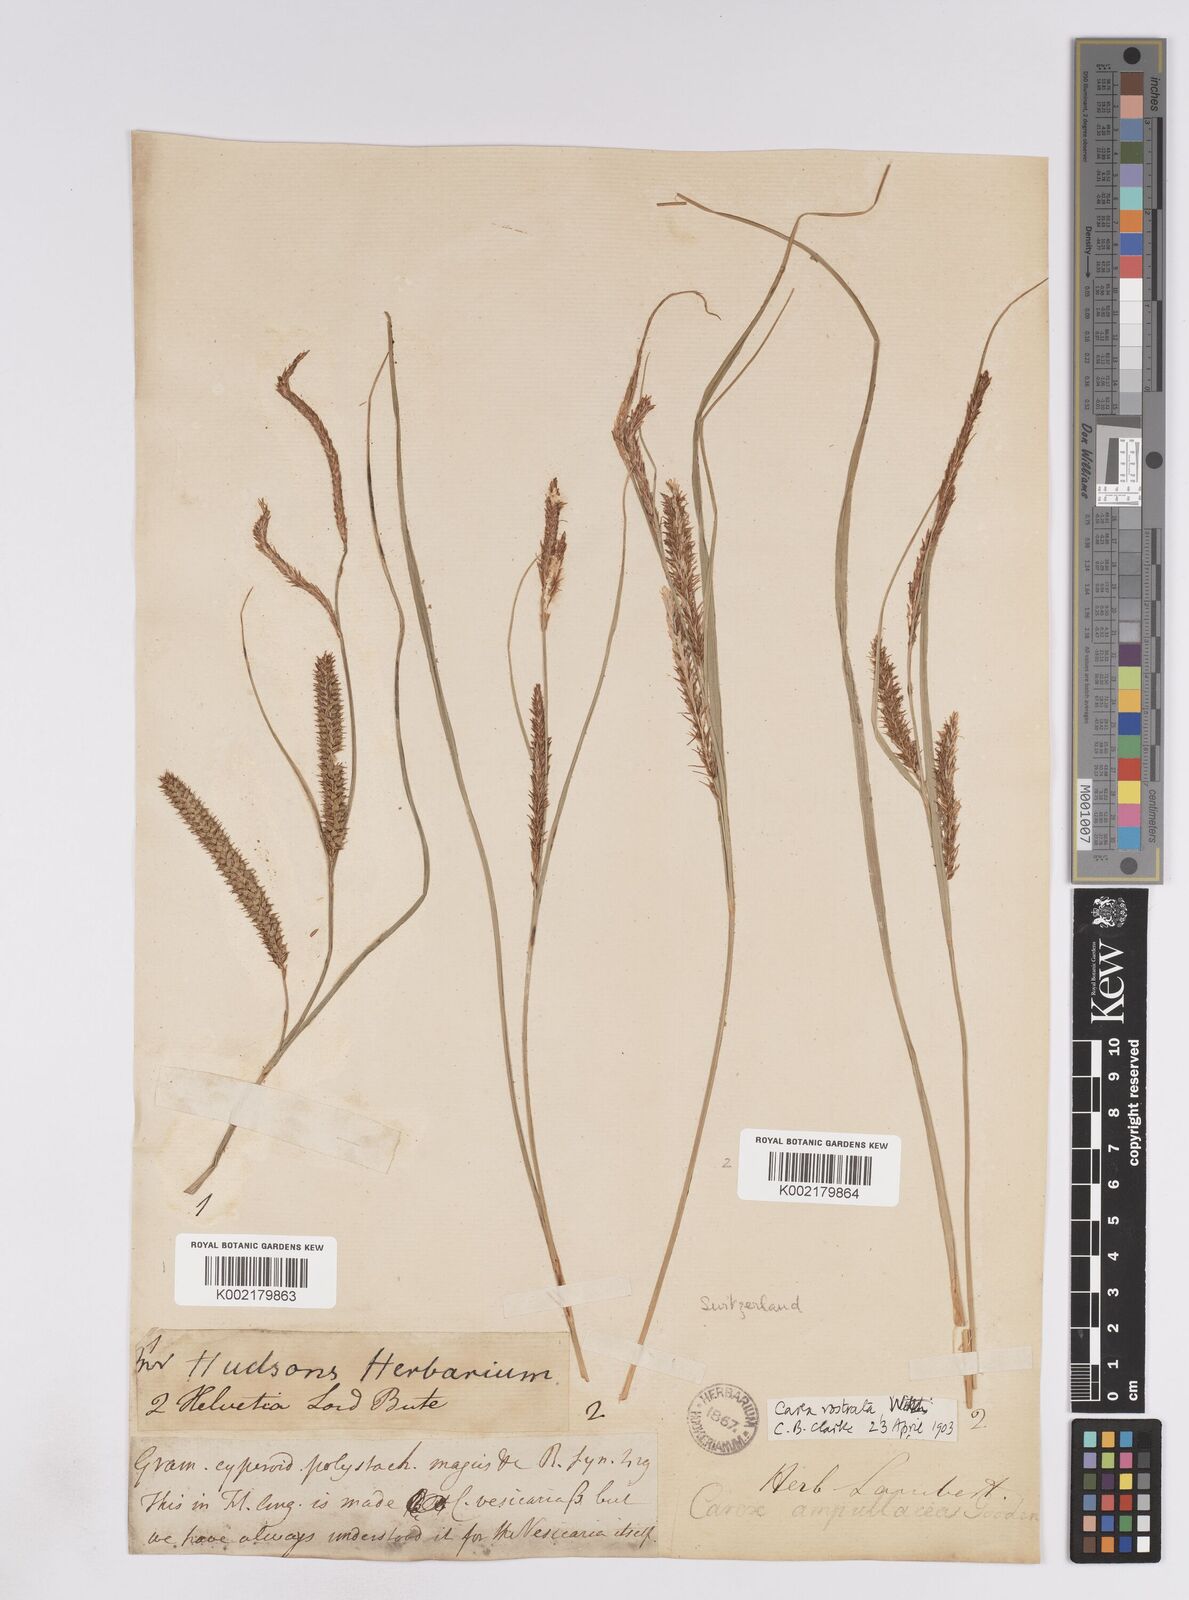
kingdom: Plantae
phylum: Tracheophyta
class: Liliopsida
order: Poales
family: Cyperaceae
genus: Carex
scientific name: Carex rostrata
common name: Bottle sedge
